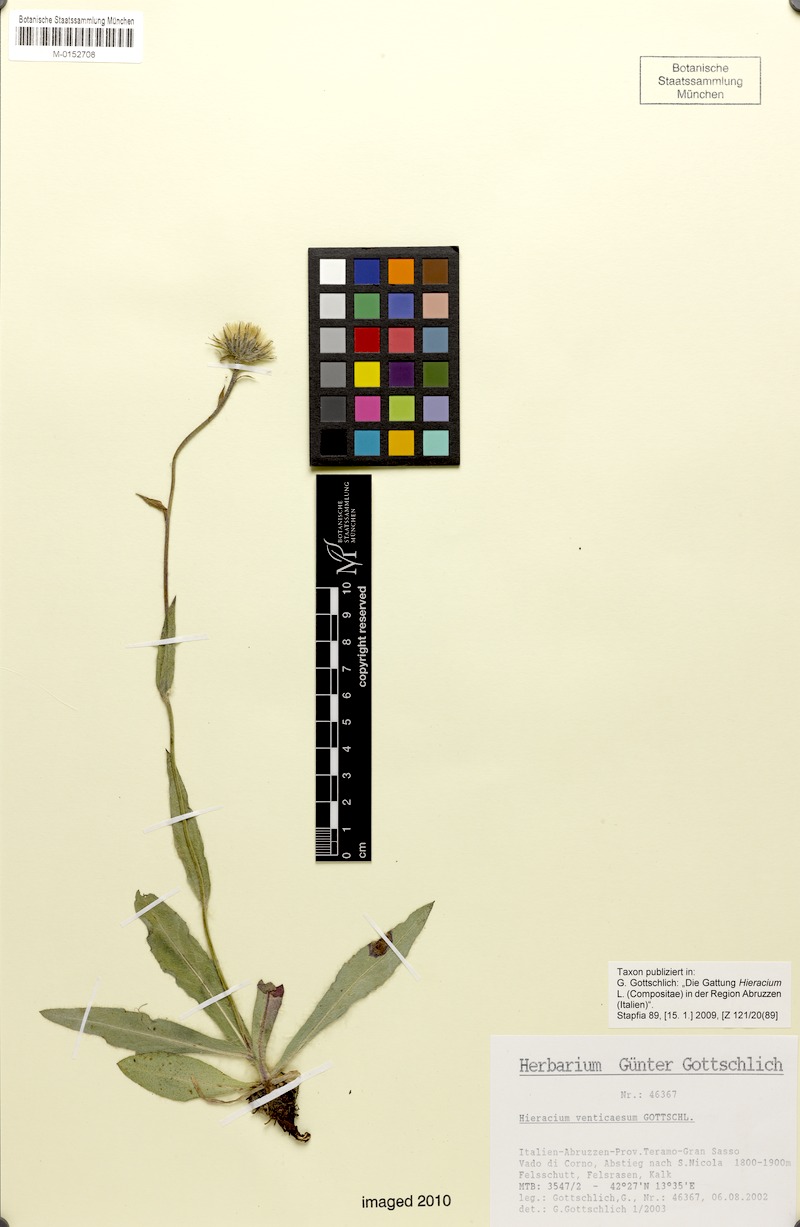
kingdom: Plantae
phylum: Tracheophyta
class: Magnoliopsida
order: Asterales
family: Asteraceae
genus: Hieracium
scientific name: Hieracium venticaesum
